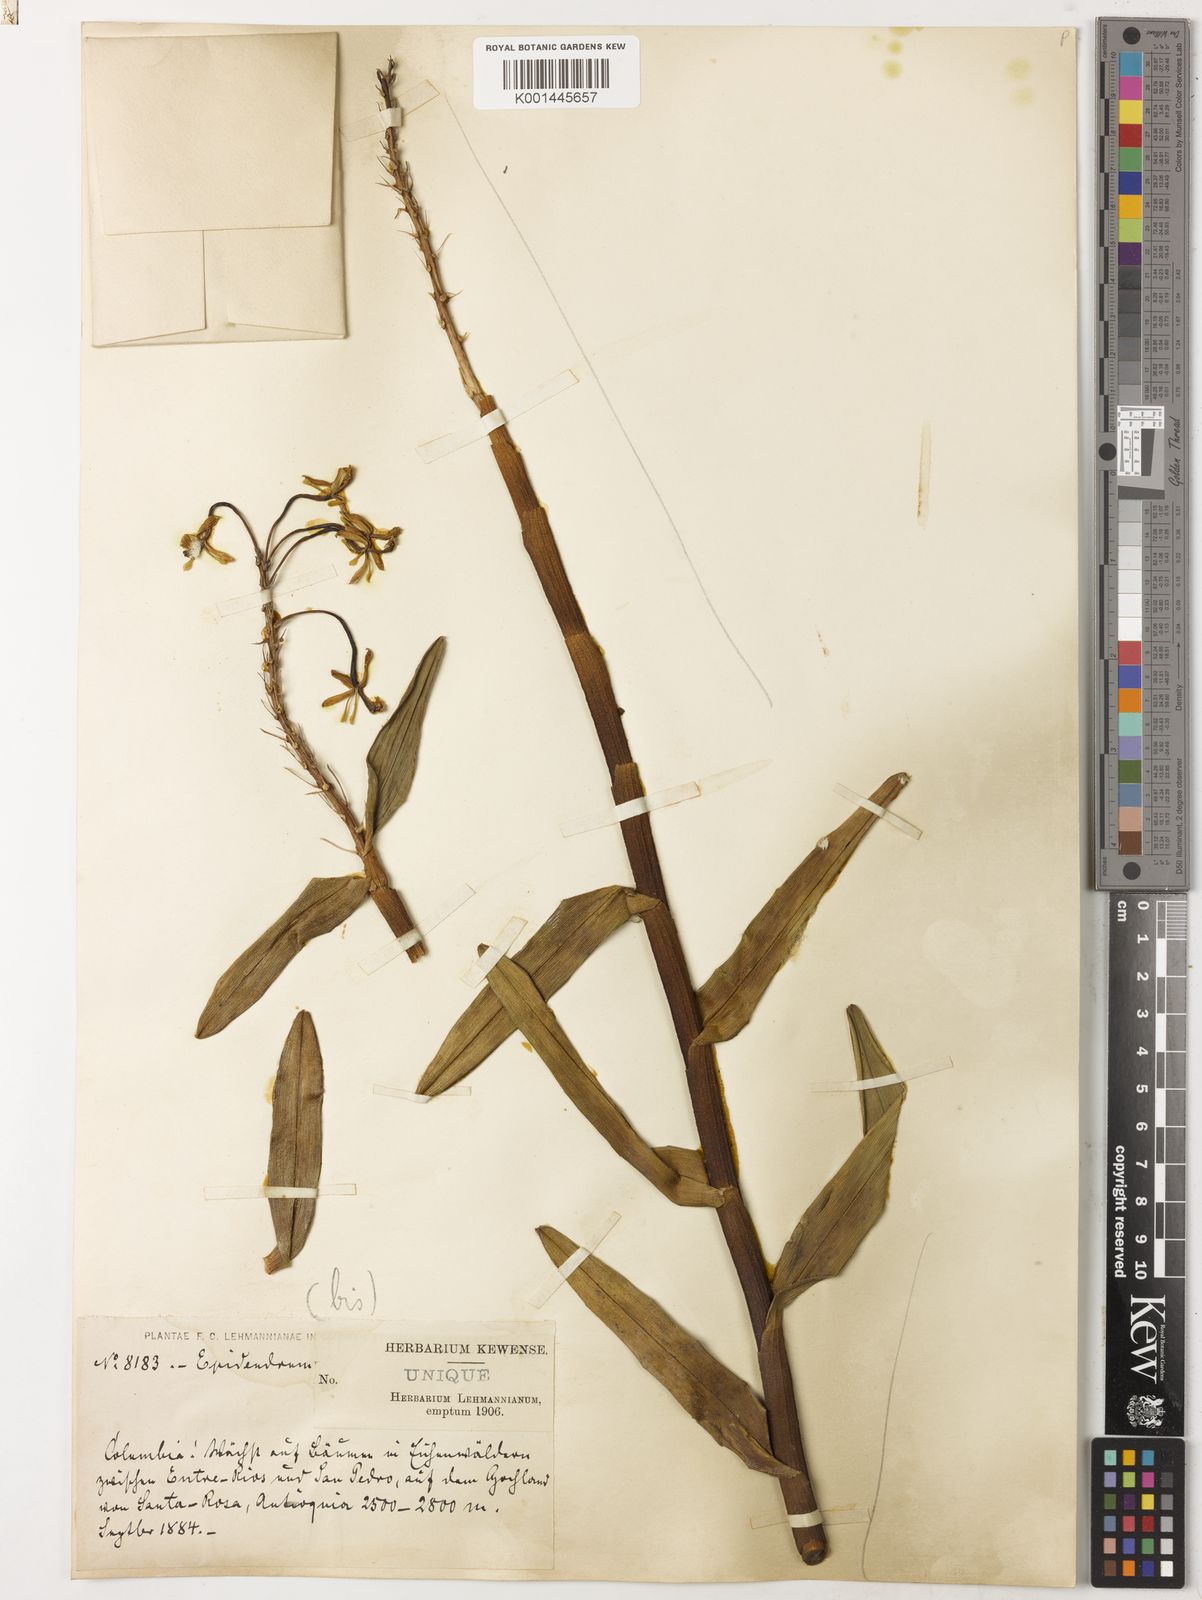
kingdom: Plantae
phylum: Tracheophyta
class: Liliopsida
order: Asparagales
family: Orchidaceae
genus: Epidendrum
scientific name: Epidendrum orgyale
